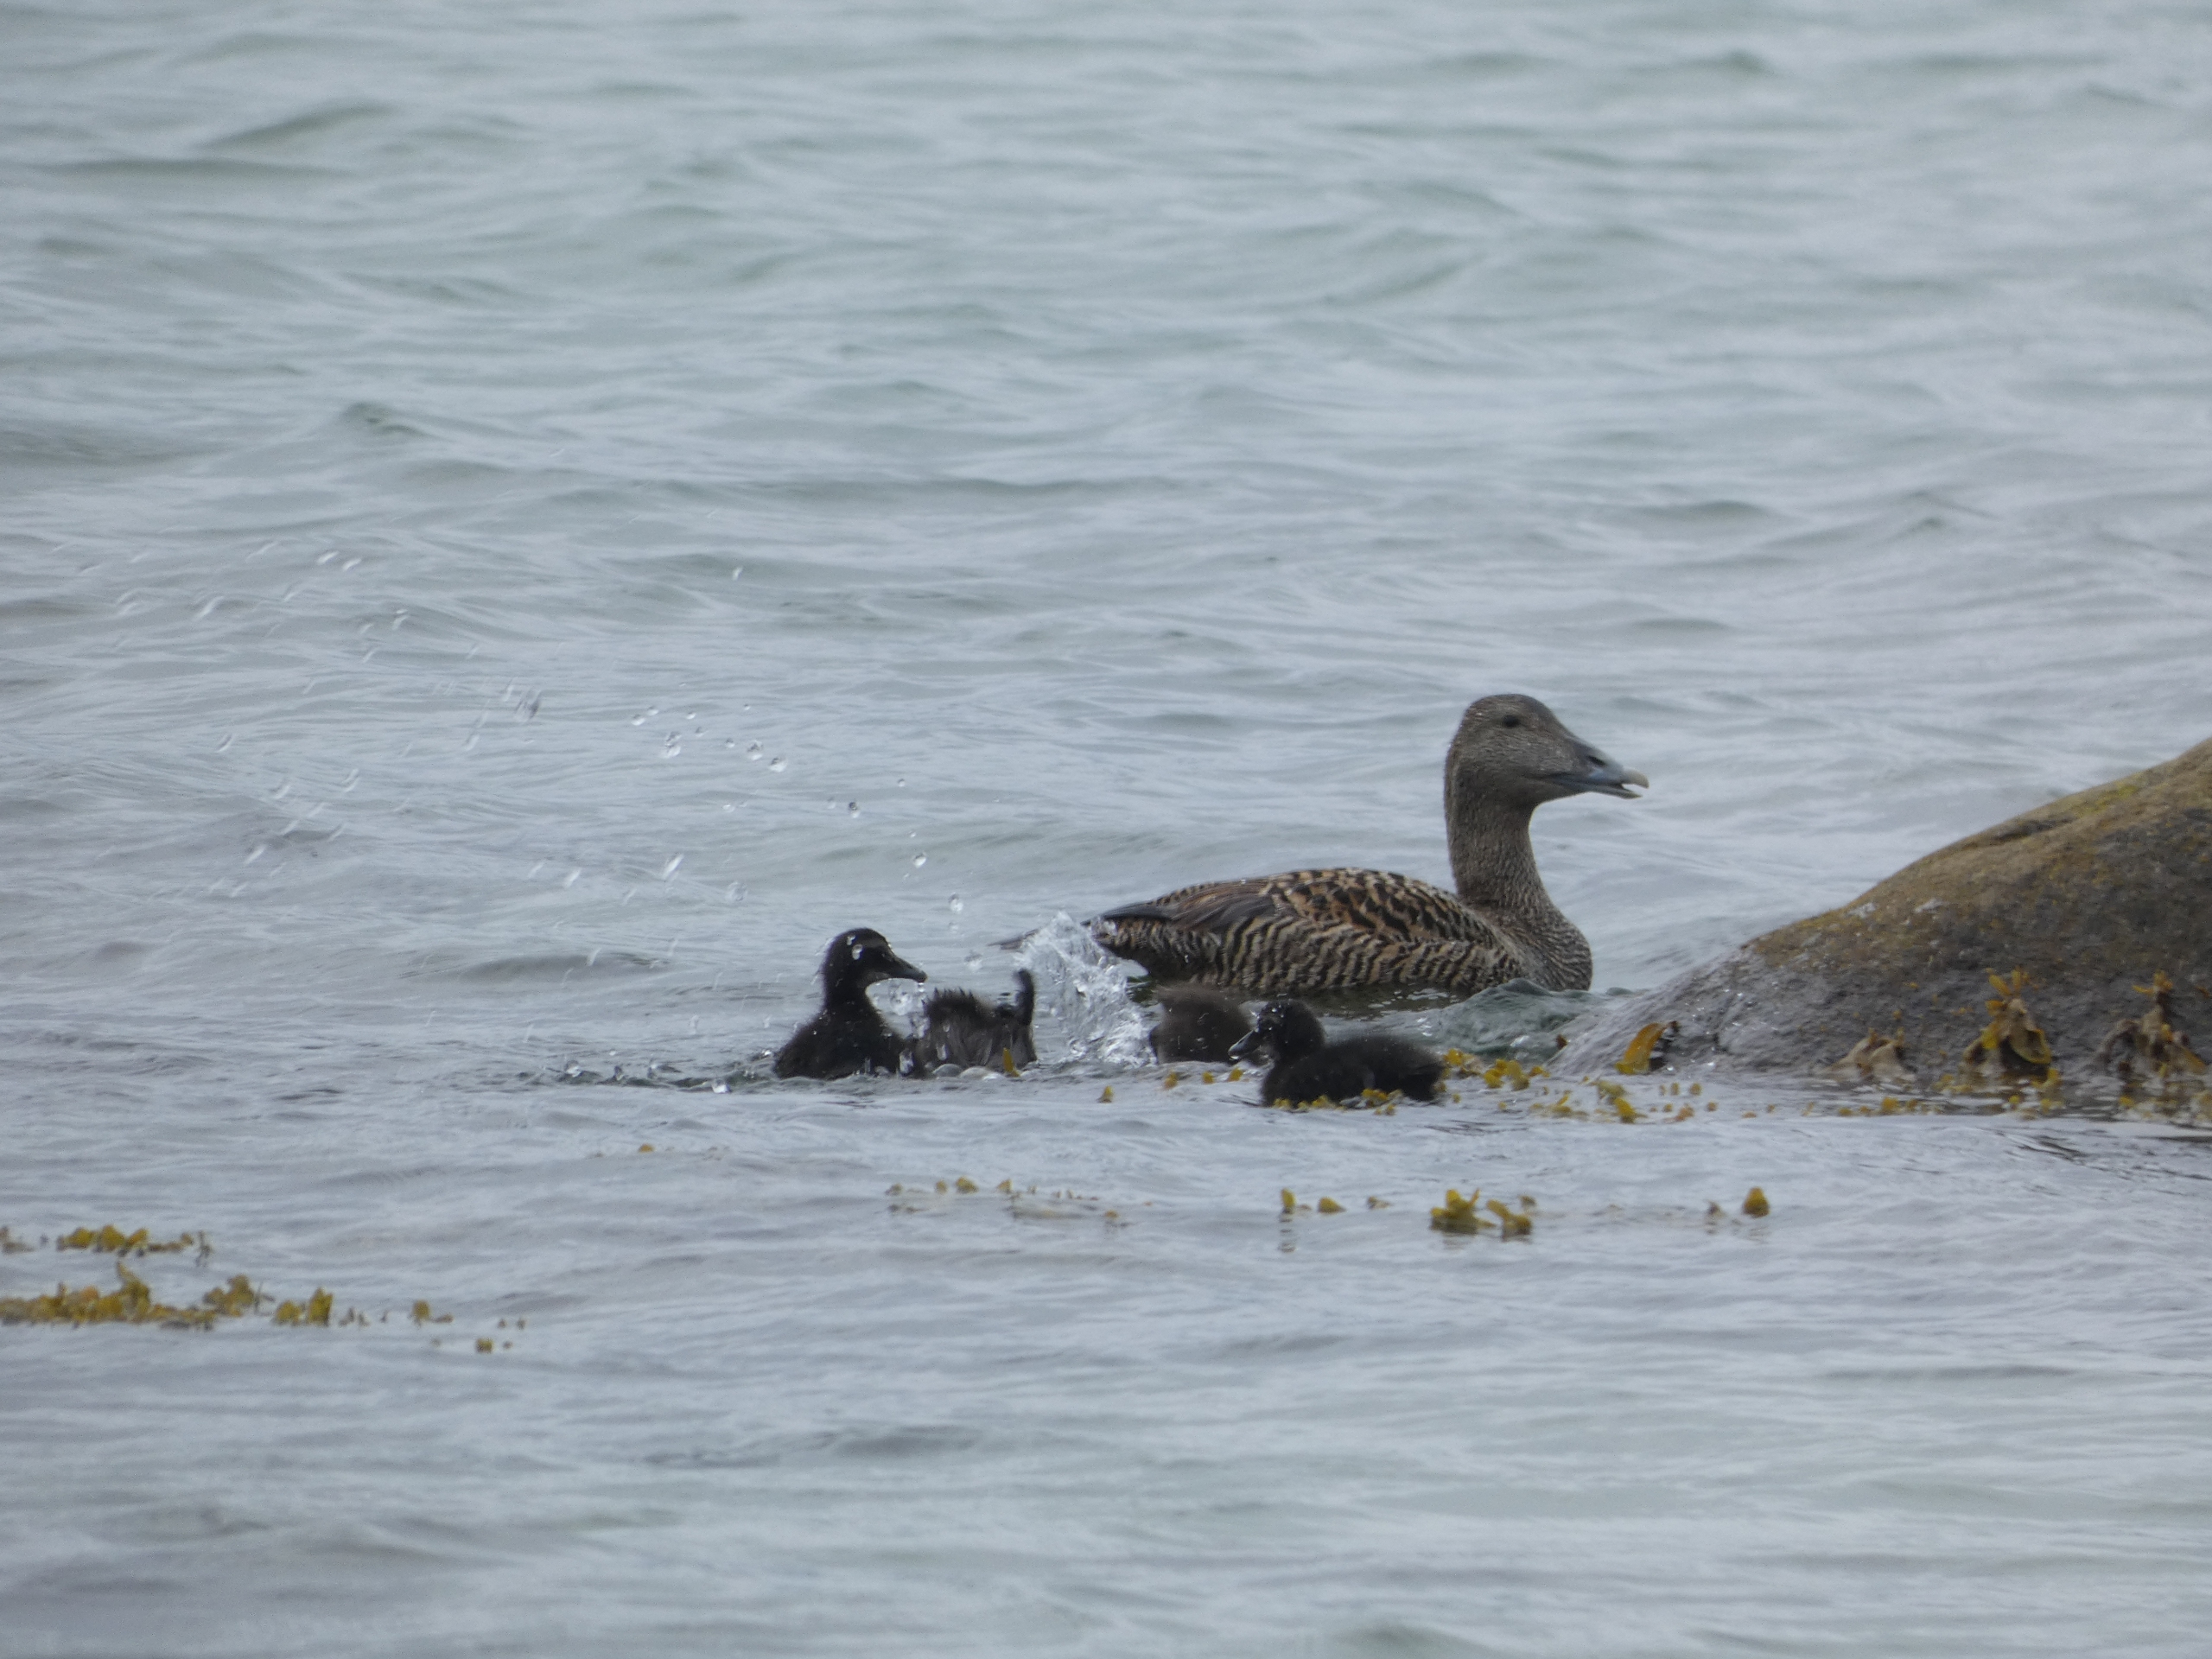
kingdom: Animalia
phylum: Chordata
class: Aves
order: Anseriformes
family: Anatidae
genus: Somateria
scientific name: Somateria mollissima
